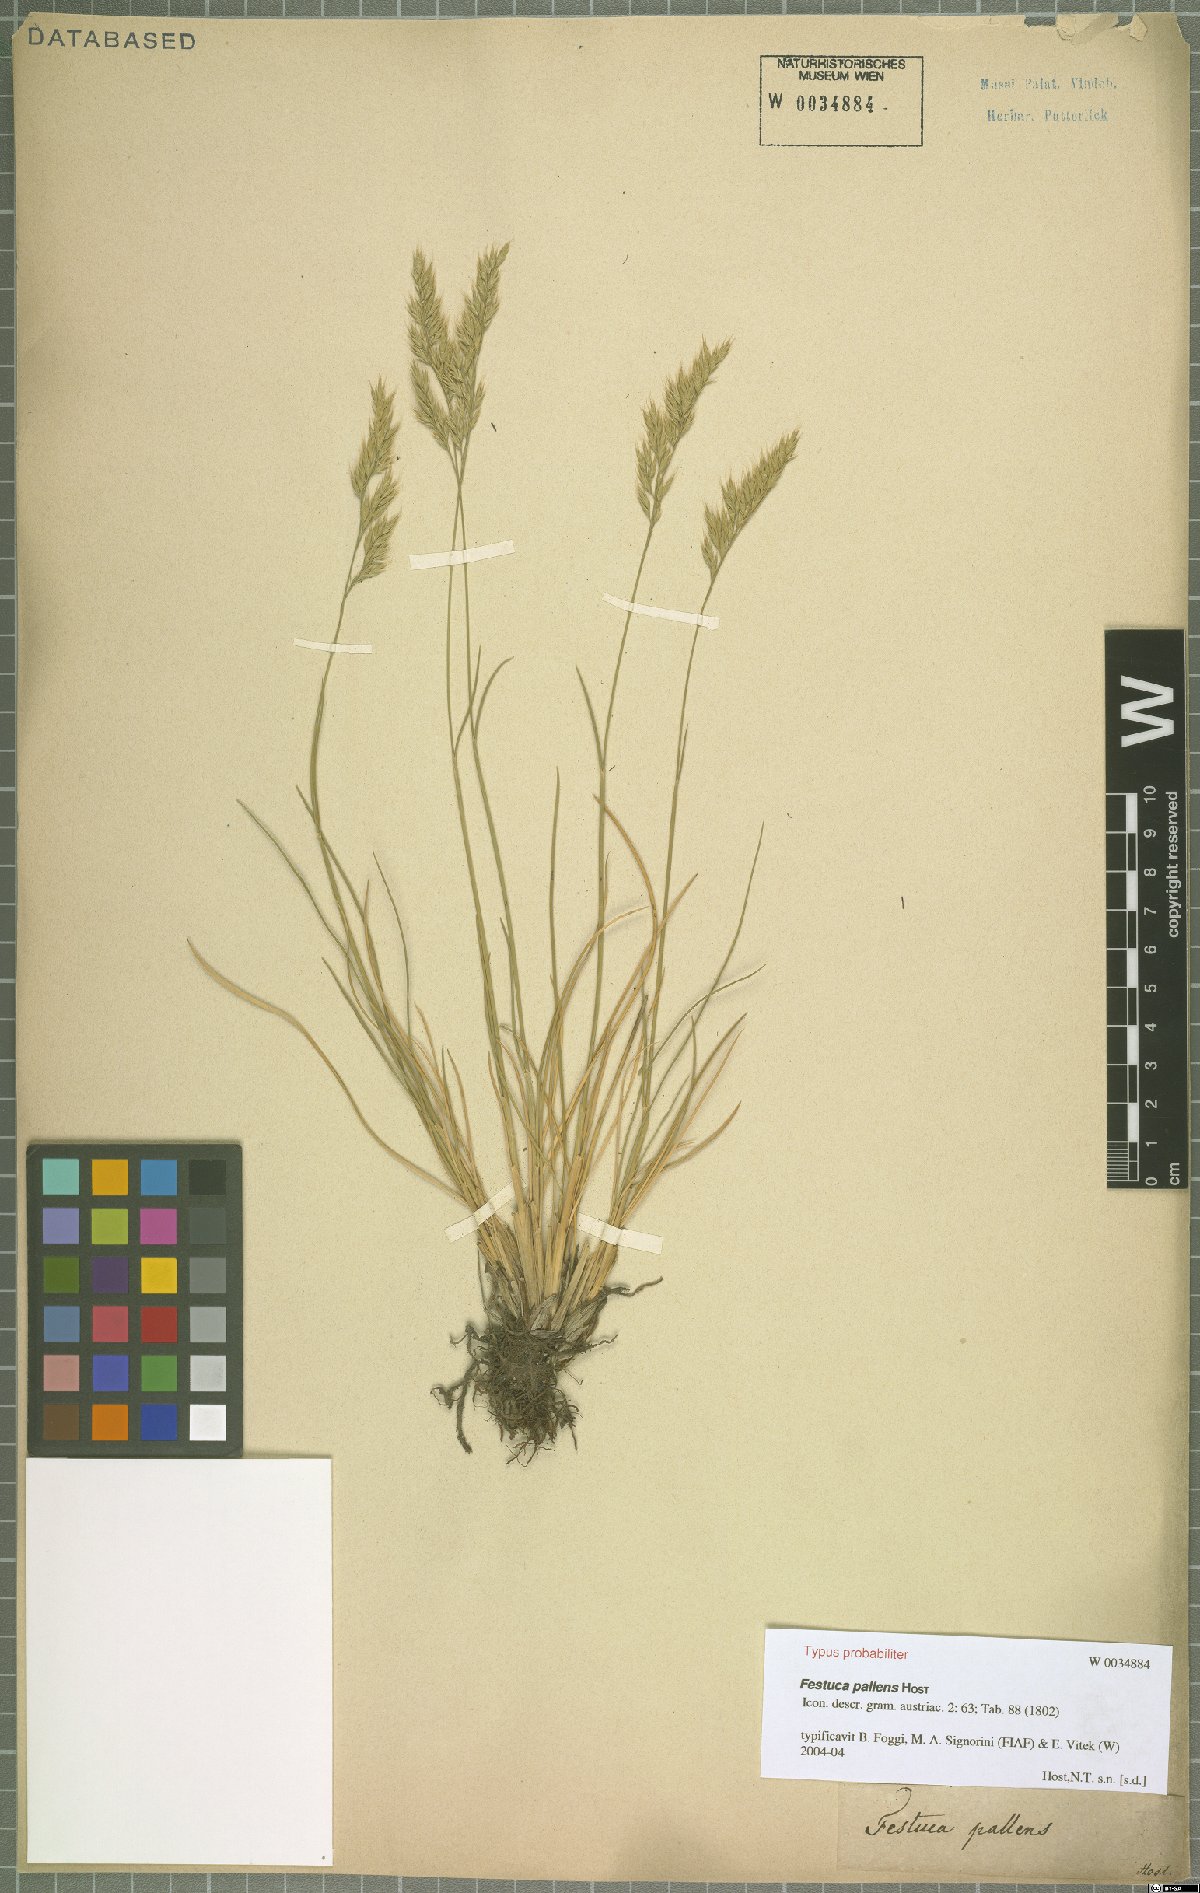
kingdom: Plantae
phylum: Tracheophyta
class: Liliopsida
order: Poales
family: Poaceae
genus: Festuca
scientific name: Festuca pallens
